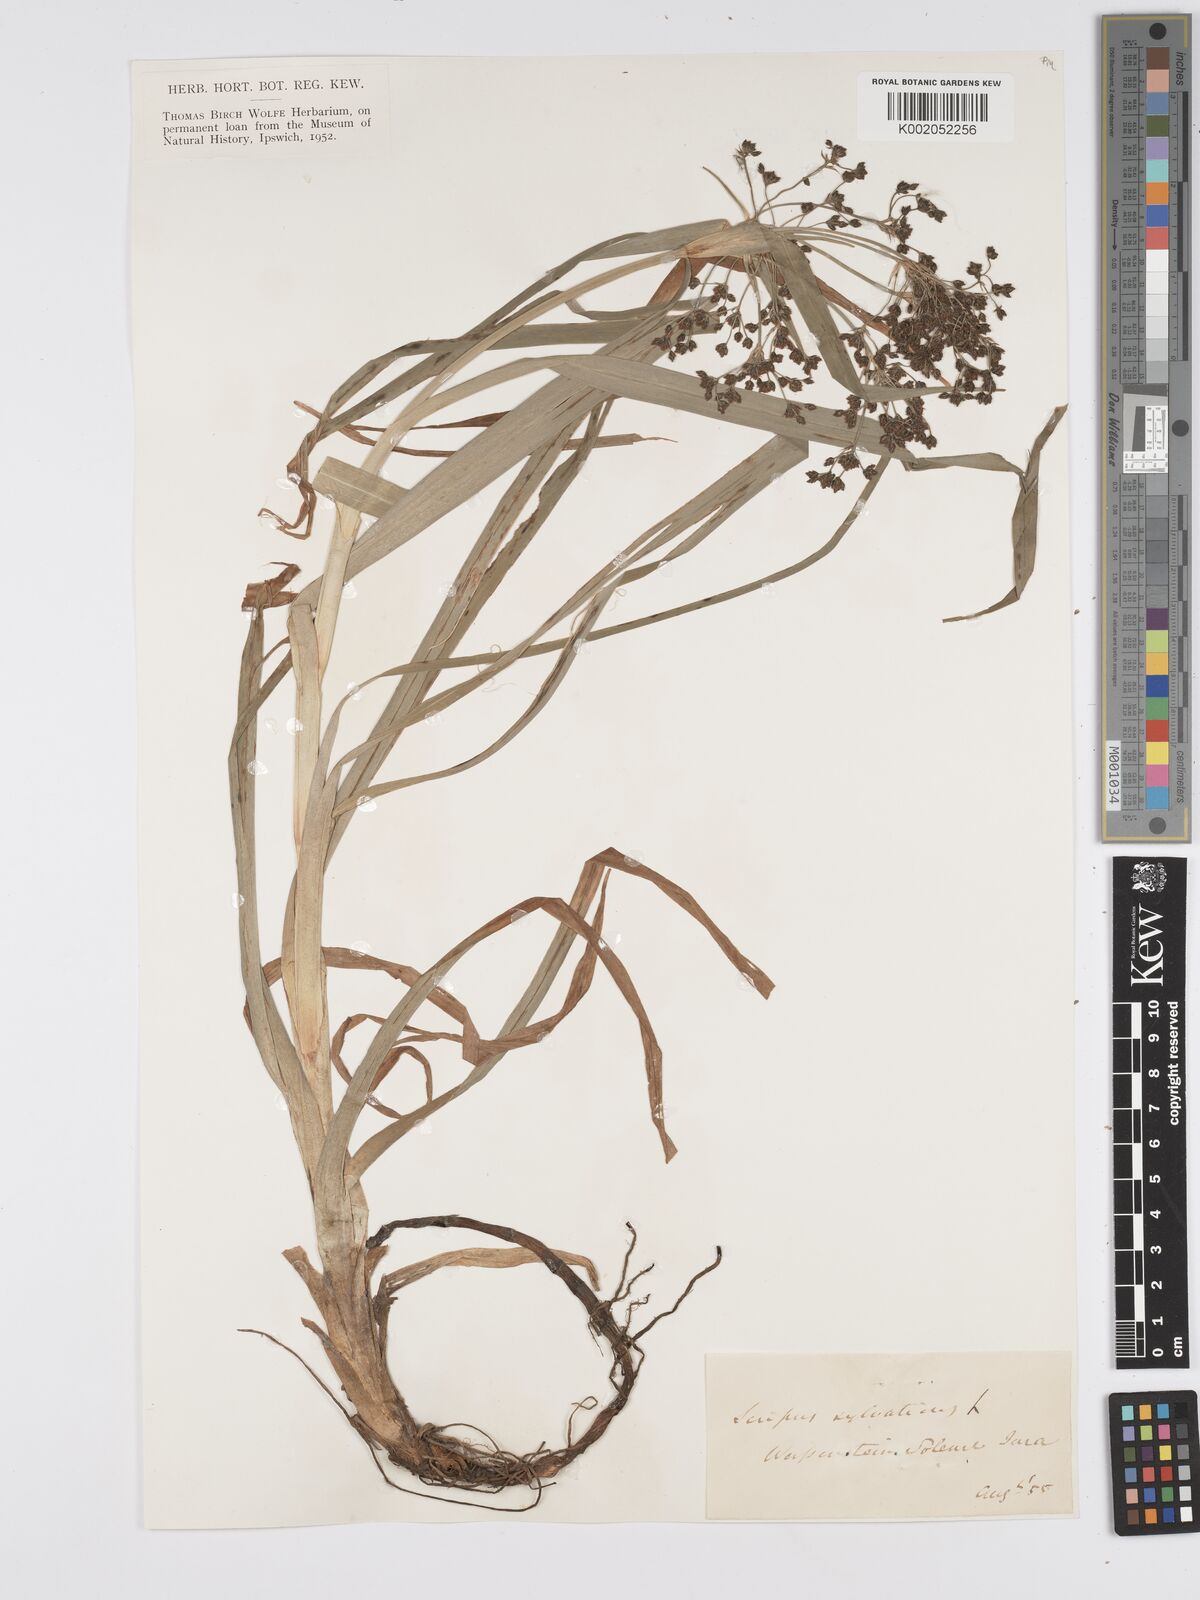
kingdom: Plantae
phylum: Tracheophyta
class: Liliopsida
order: Poales
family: Cyperaceae
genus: Scirpus
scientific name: Scirpus sylvaticus
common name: Wood club-rush
